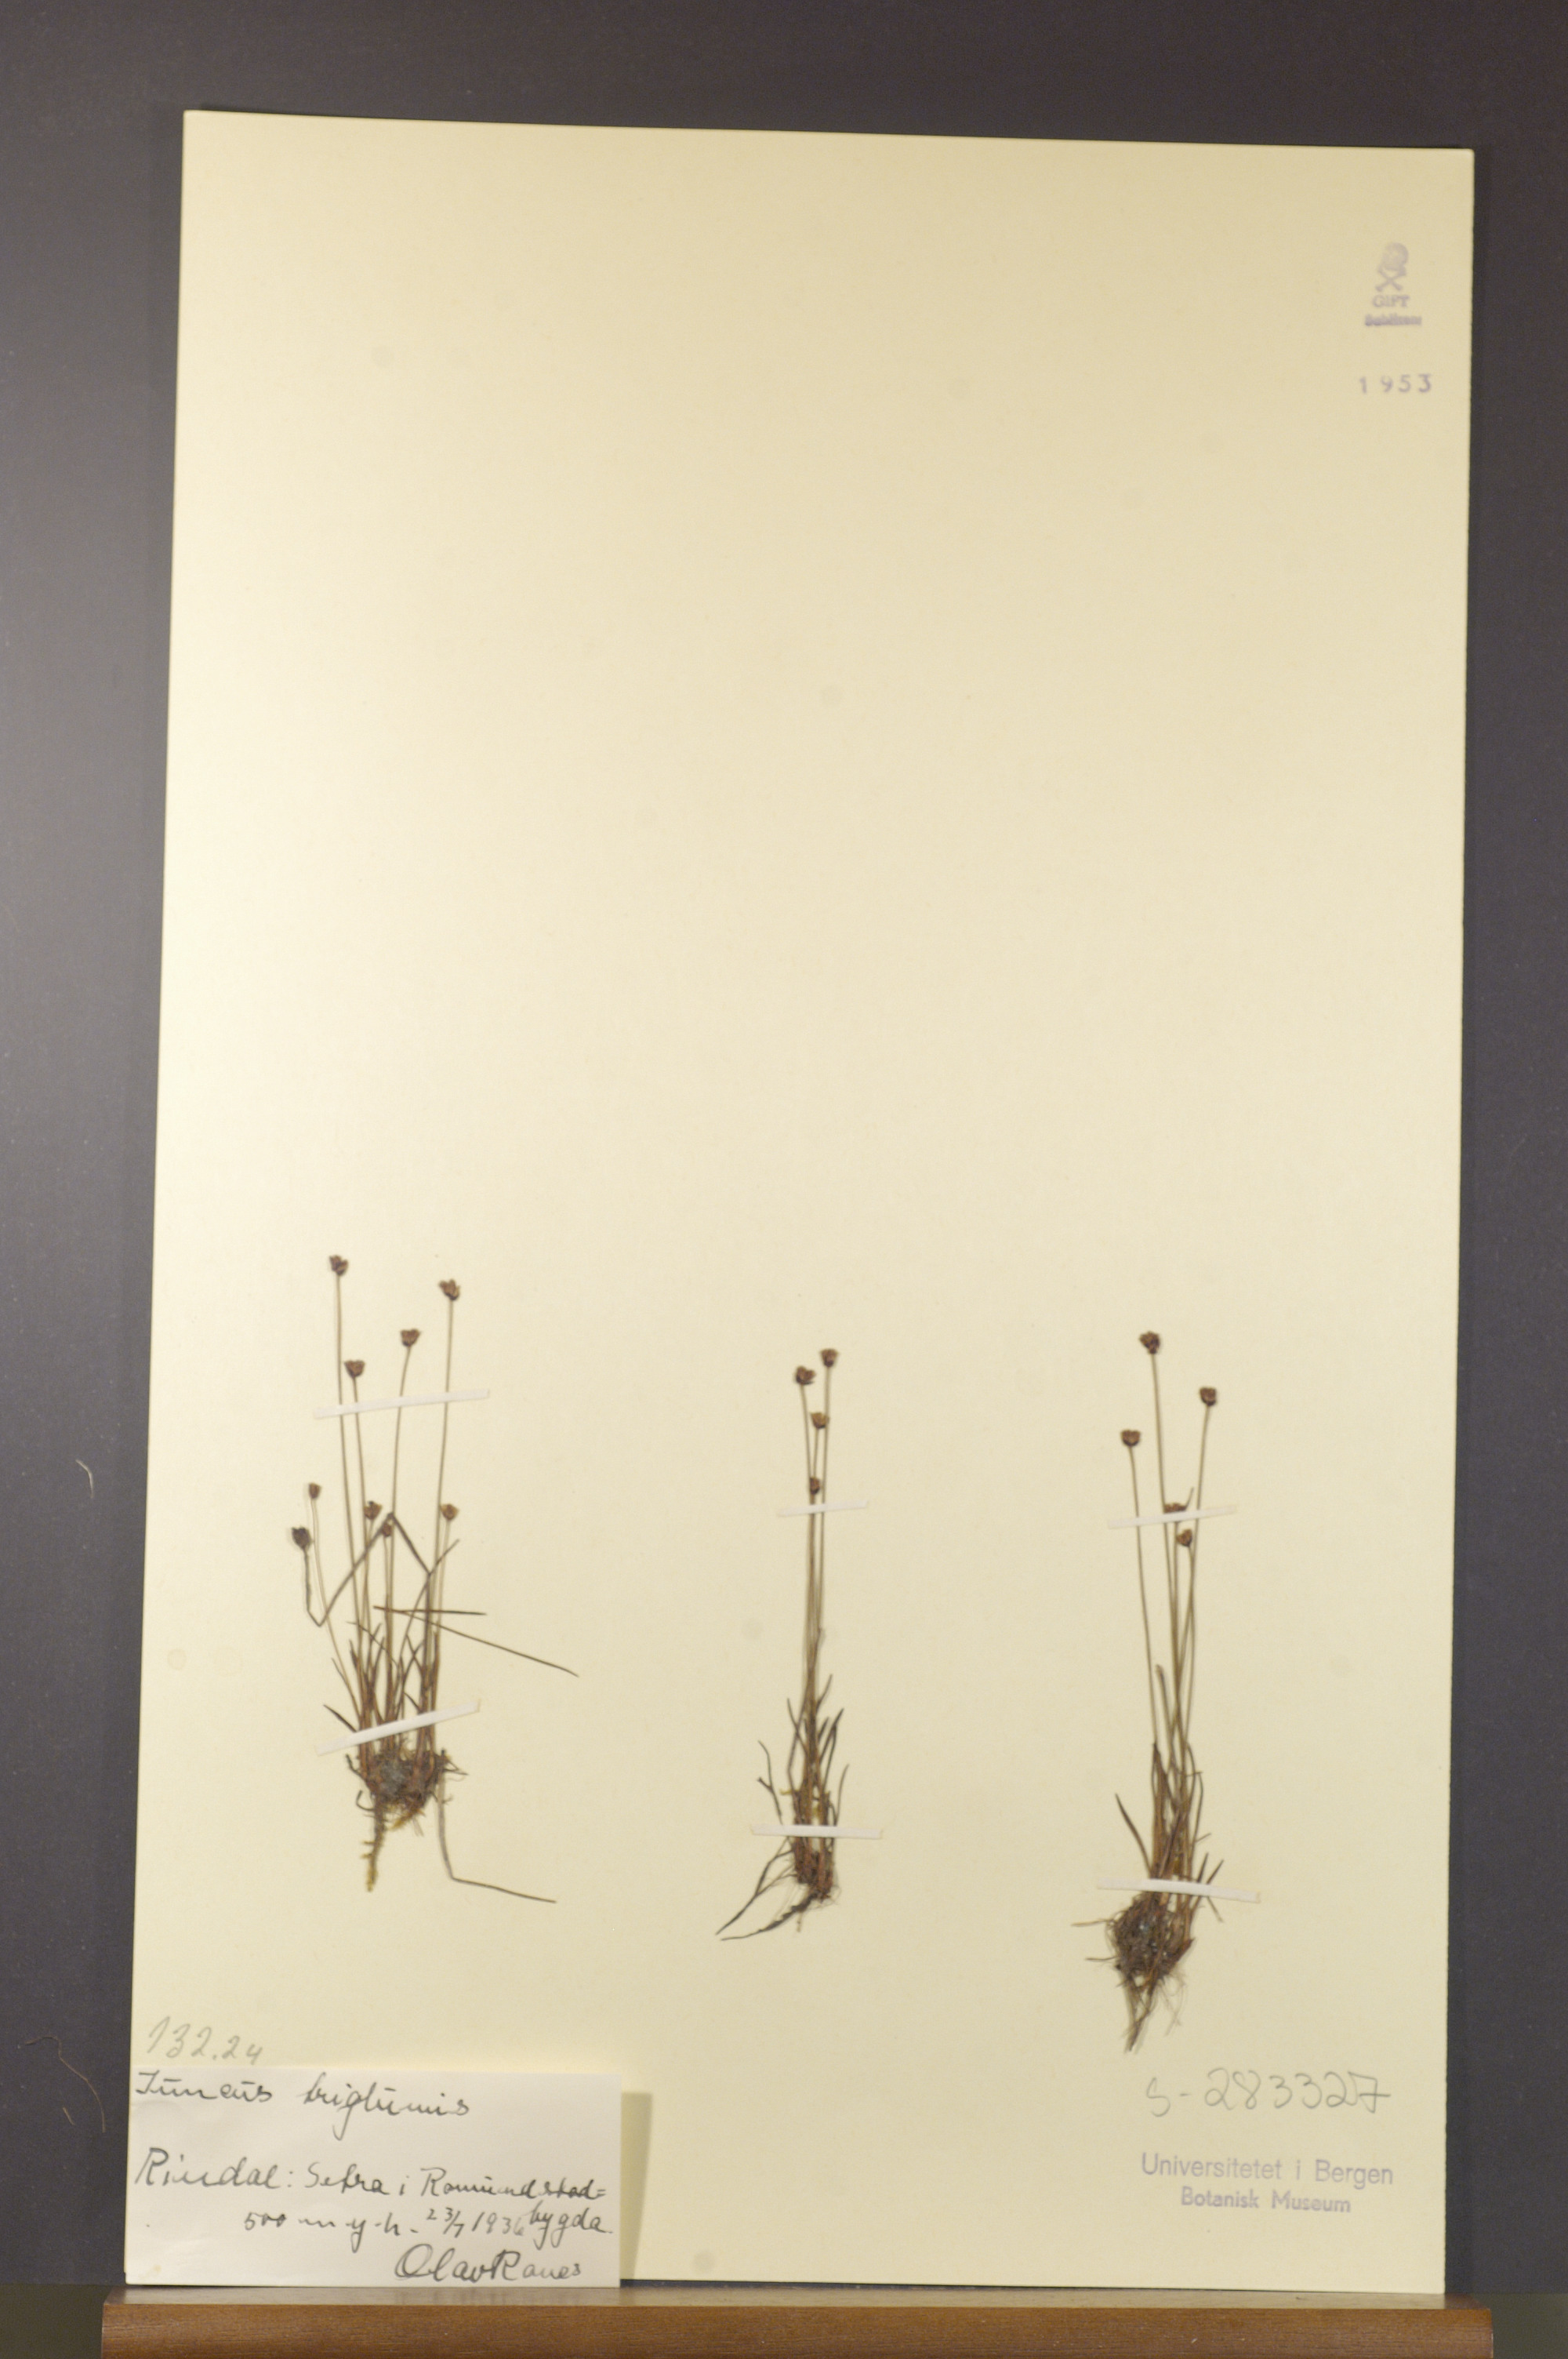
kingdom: Plantae
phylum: Tracheophyta
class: Liliopsida
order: Poales
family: Juncaceae
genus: Juncus
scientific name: Juncus triglumis
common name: Three-flowered rush
